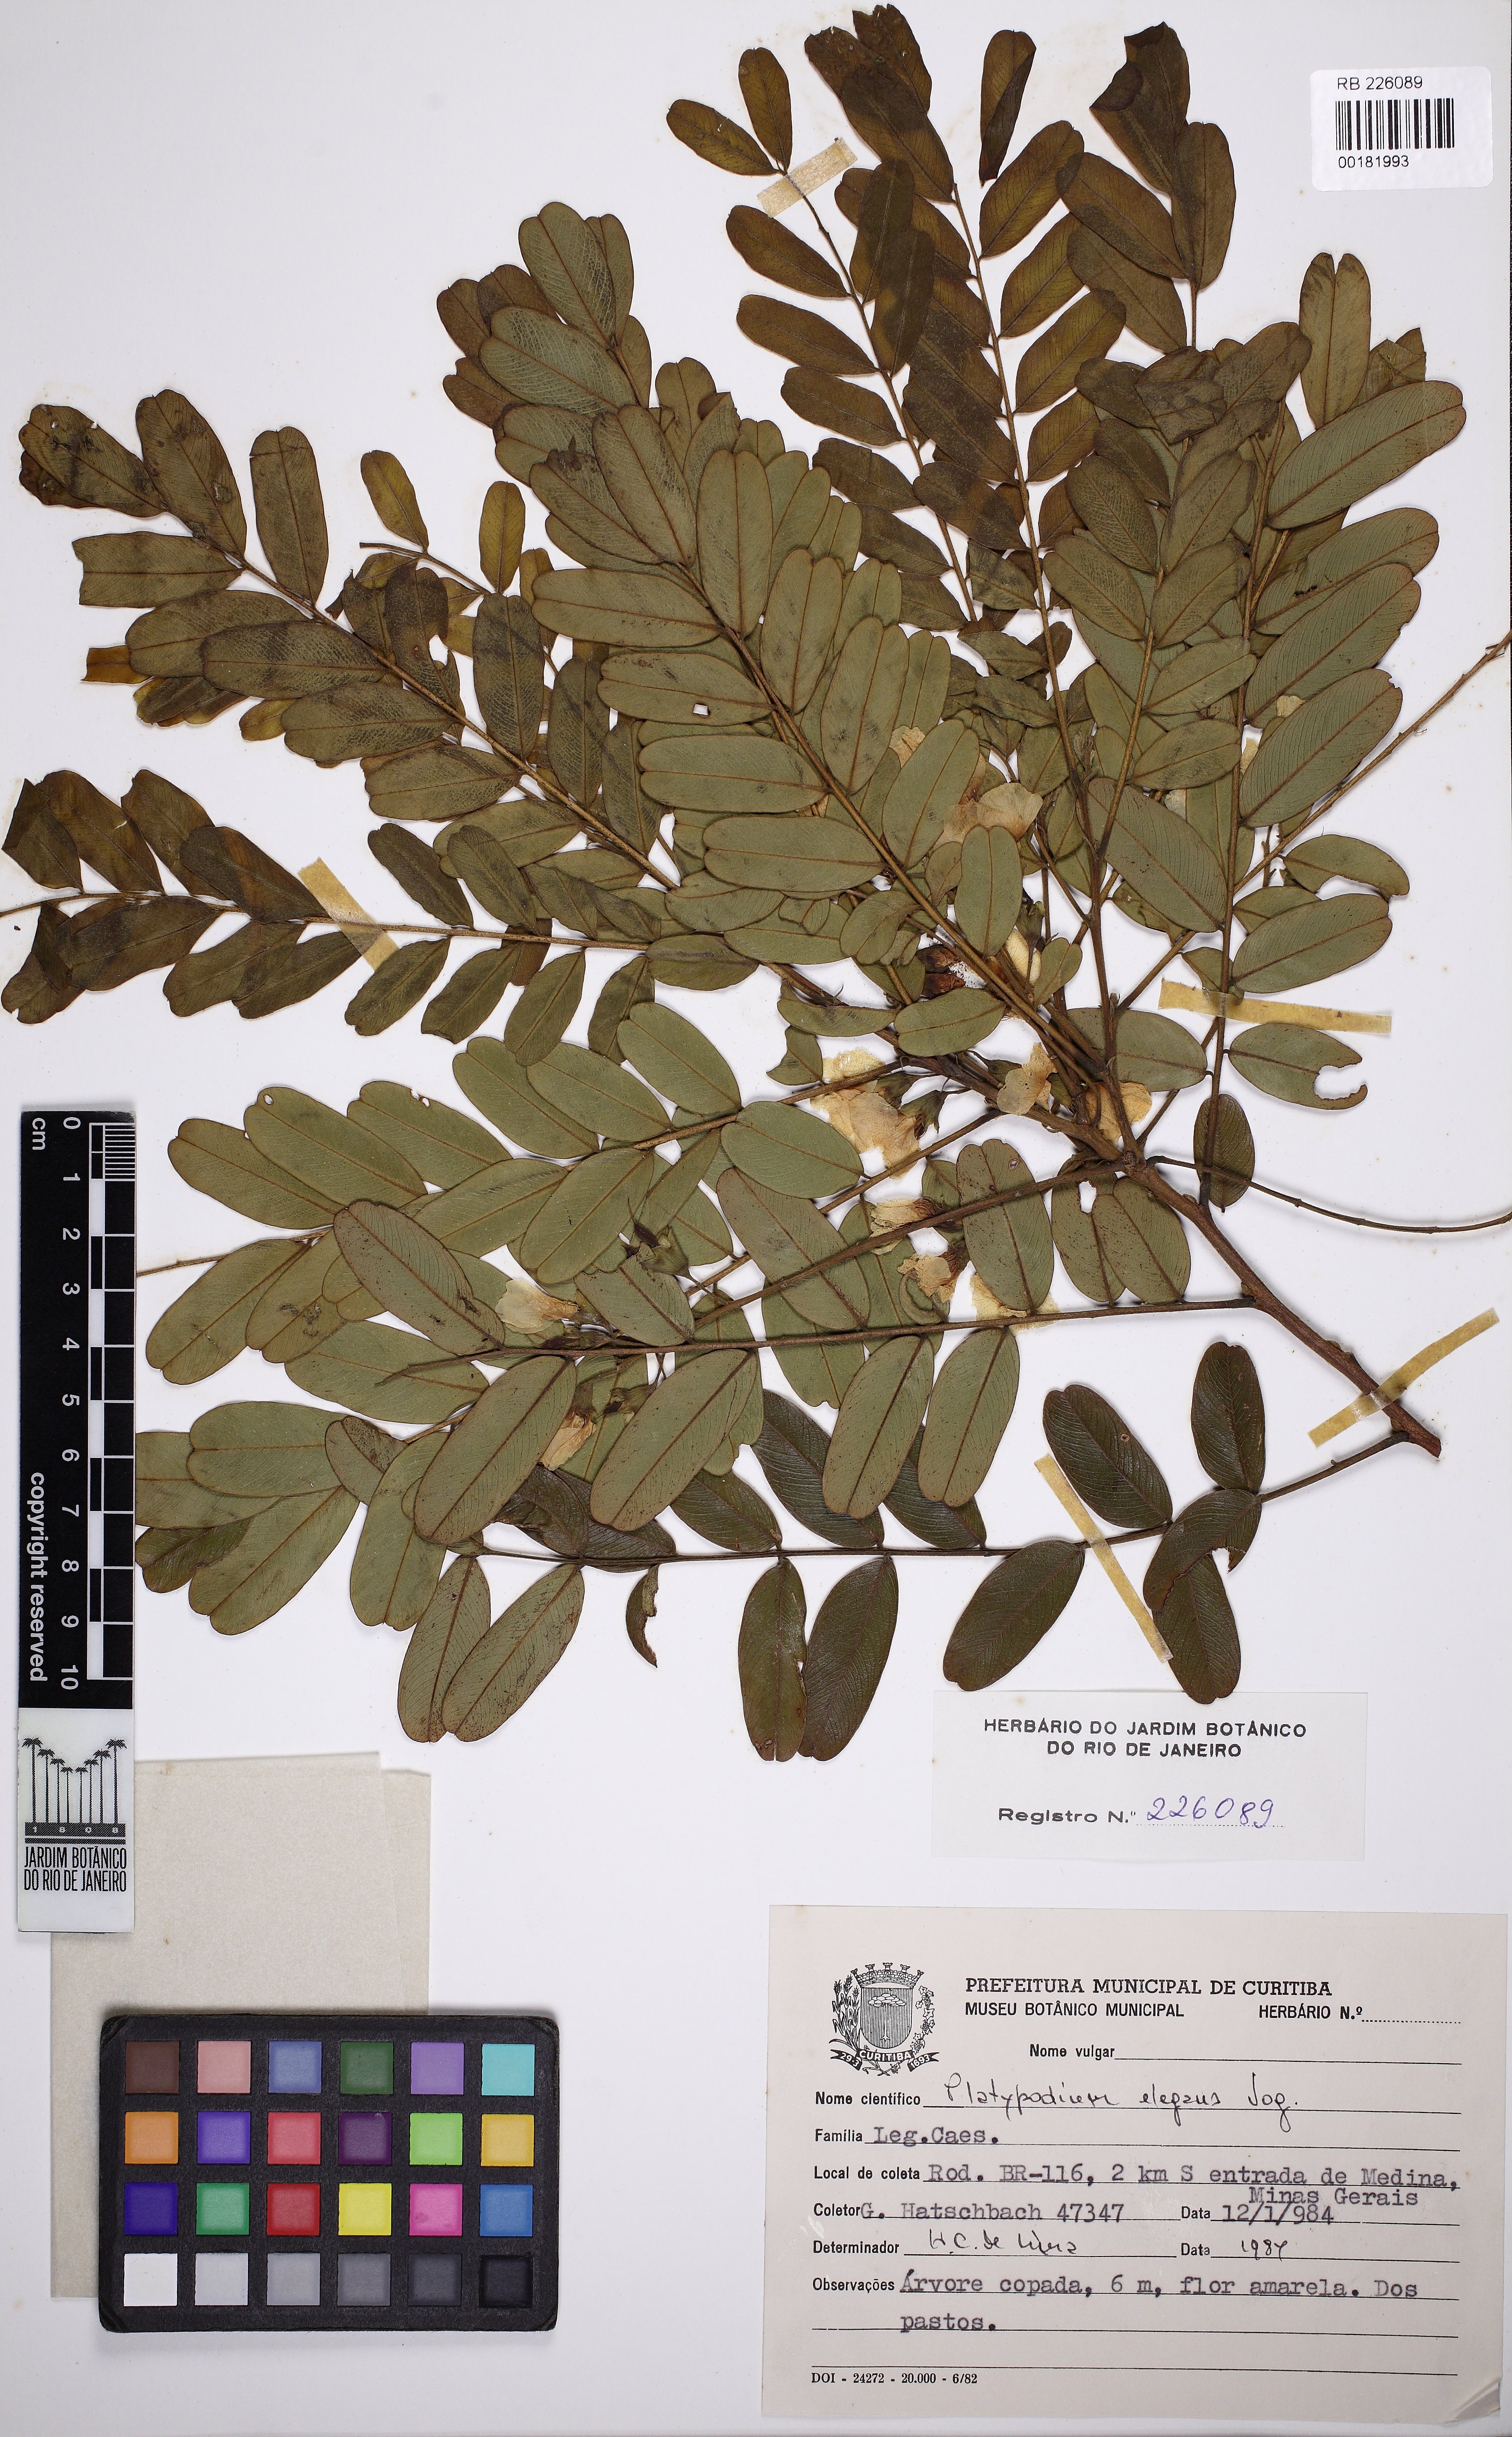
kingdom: Plantae
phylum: Tracheophyta
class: Magnoliopsida
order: Fabales
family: Fabaceae
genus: Platypodium
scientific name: Platypodium elegans
